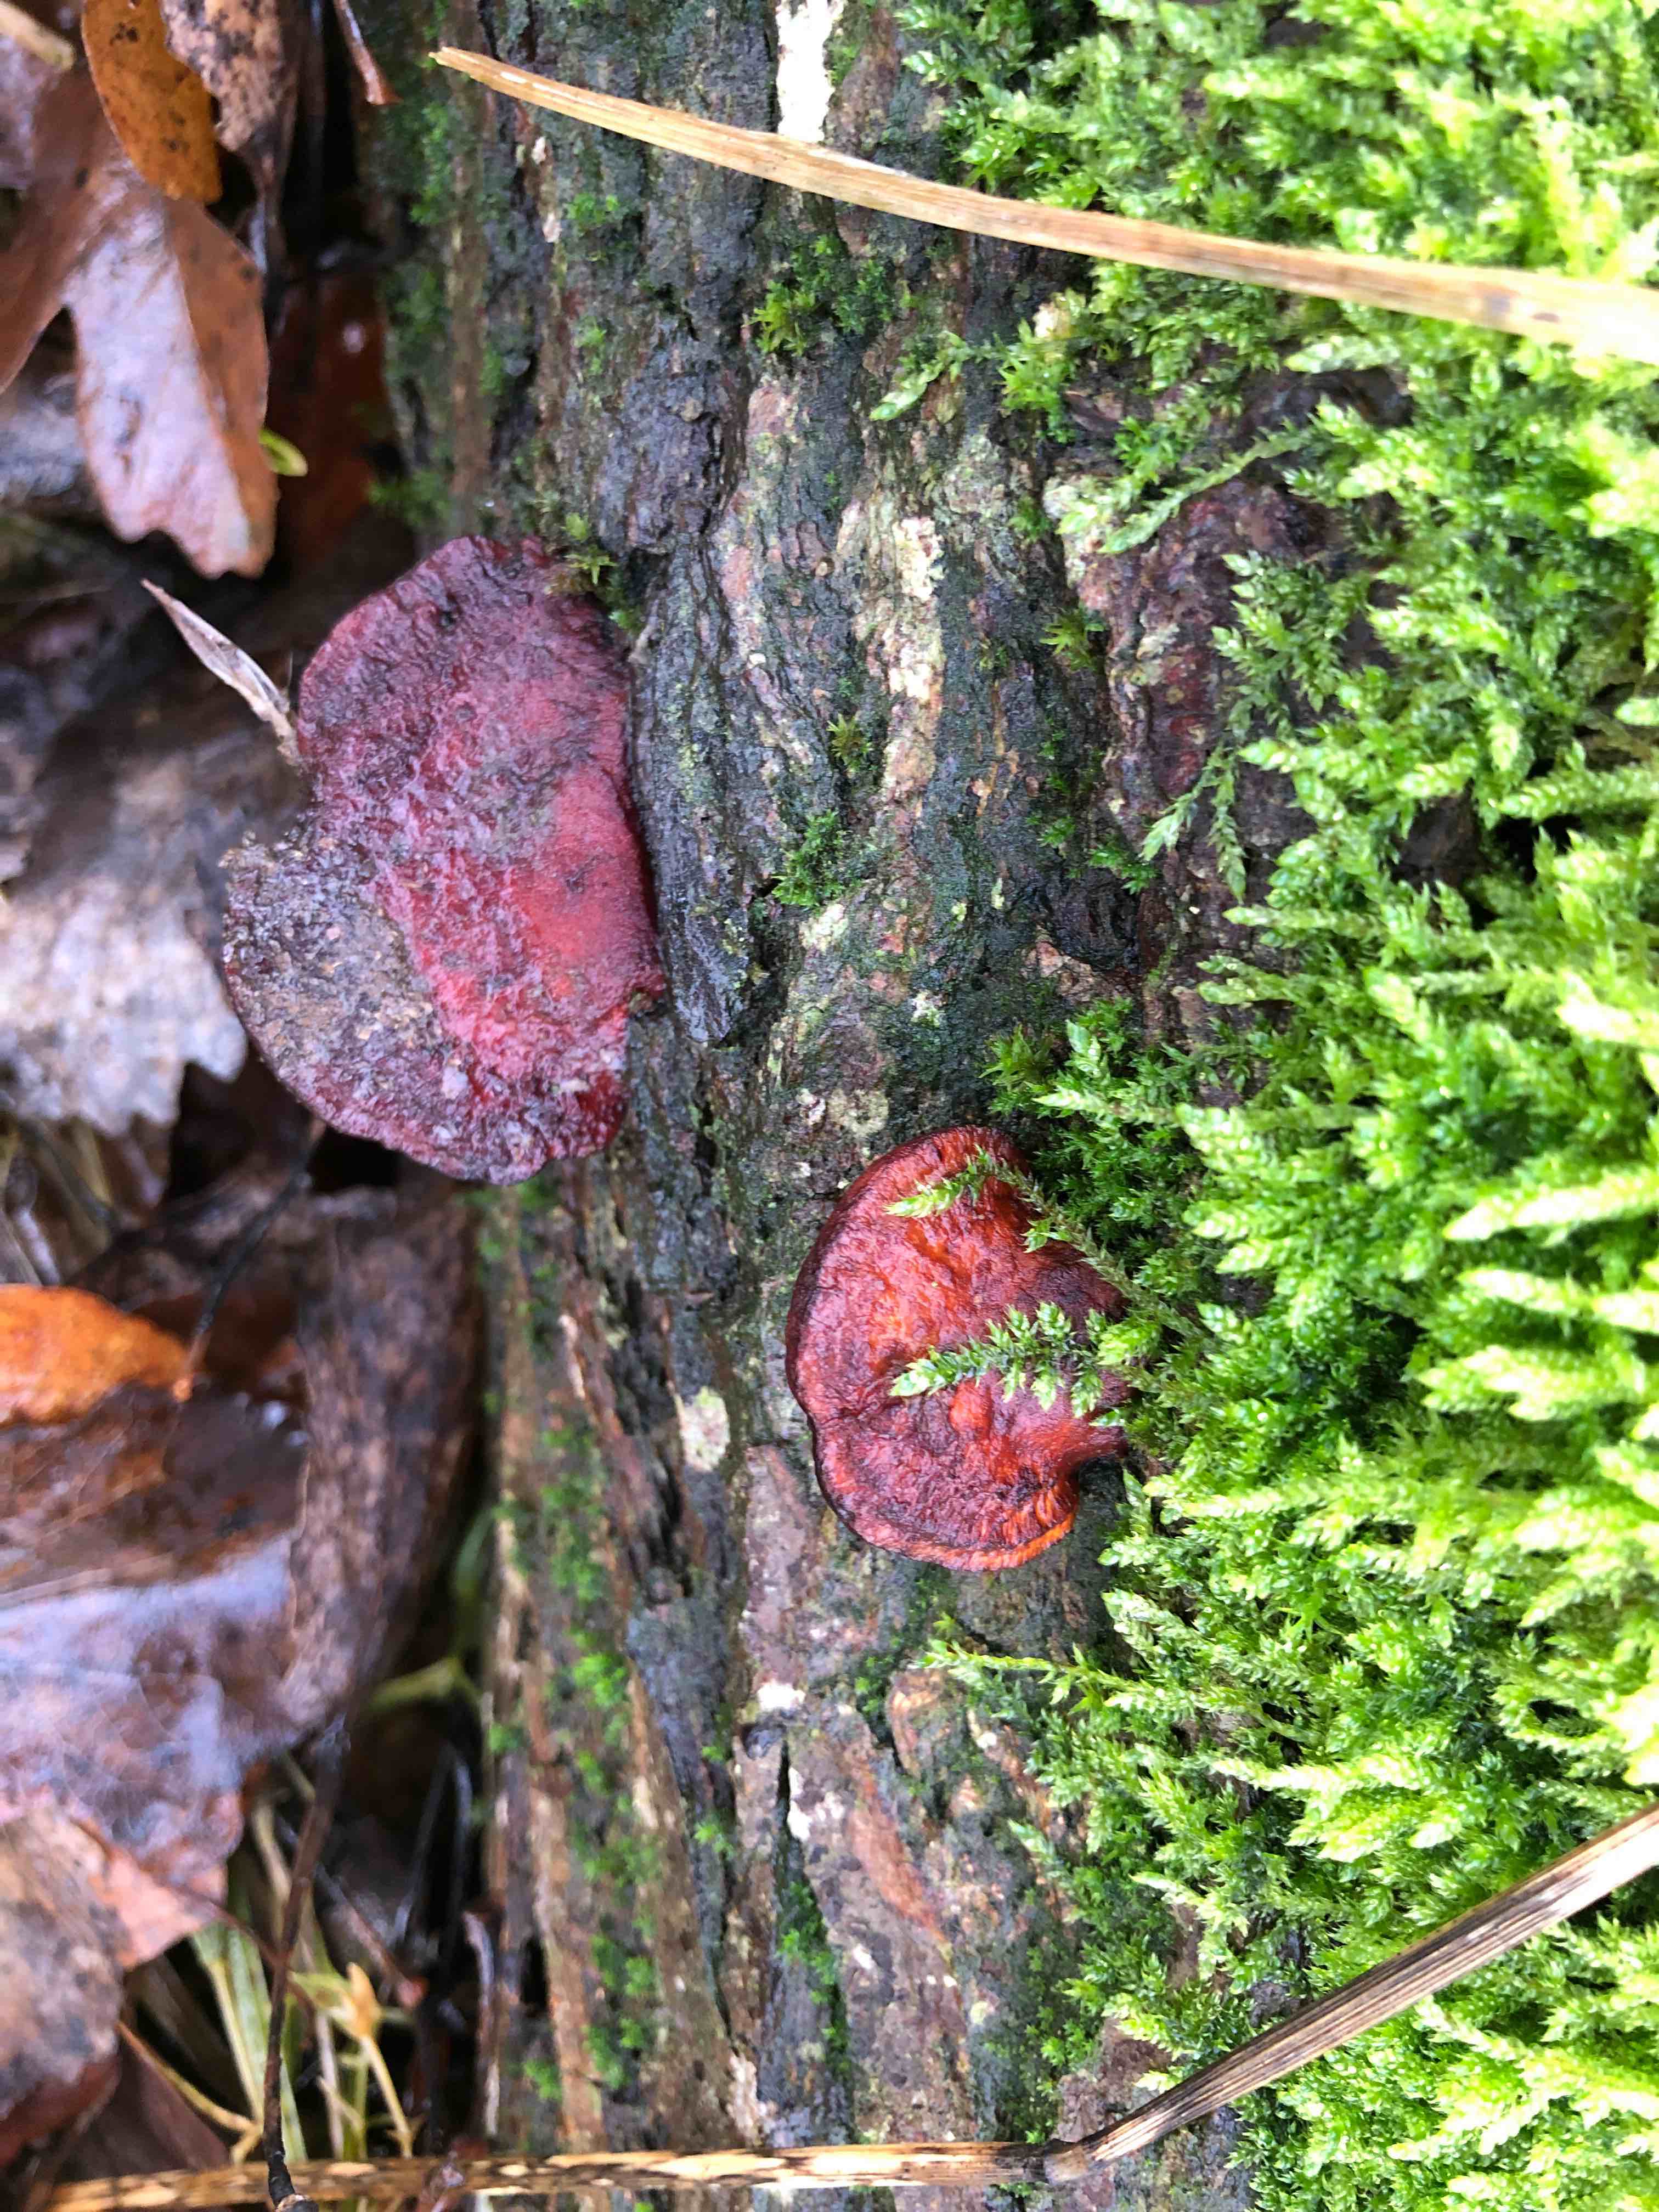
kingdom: Fungi
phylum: Basidiomycota
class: Agaricomycetes
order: Polyporales
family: Polyporaceae
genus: Daedaleopsis
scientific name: Daedaleopsis confragosa
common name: rødmende læderporesvamp
